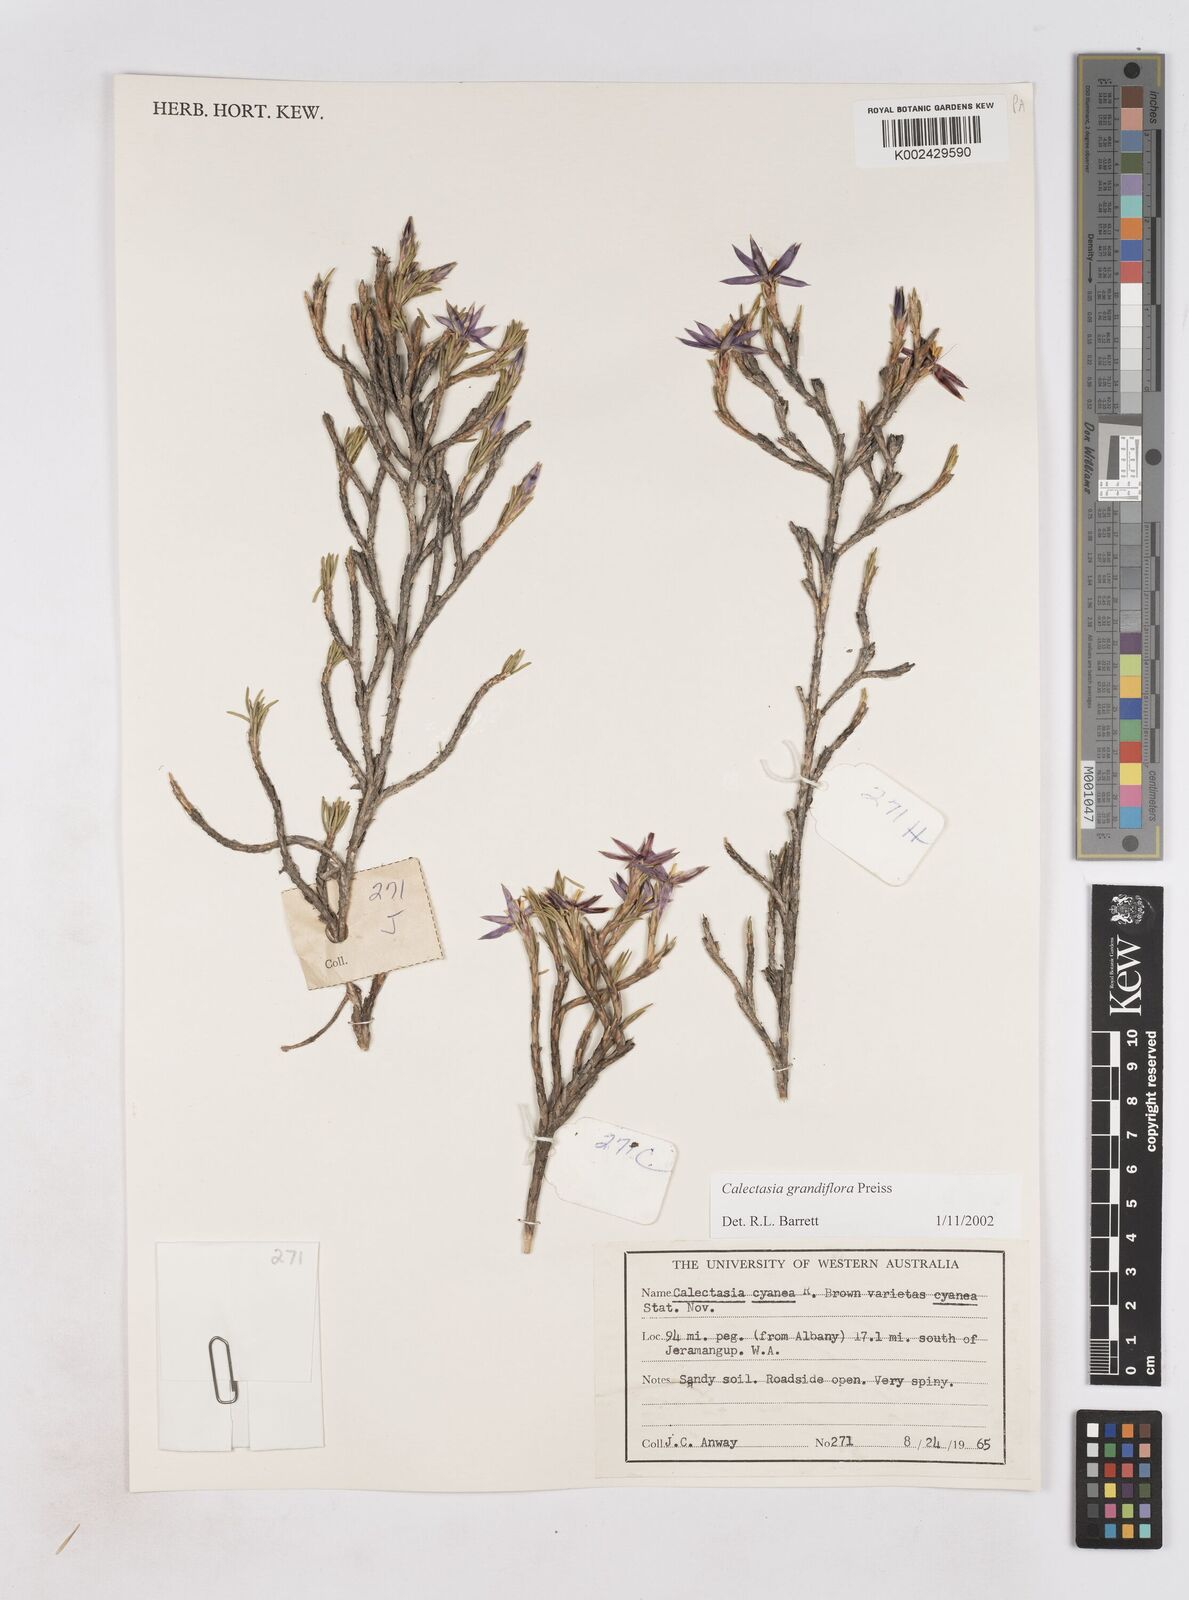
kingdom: Plantae
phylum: Tracheophyta
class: Liliopsida
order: Arecales
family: Dasypogonaceae
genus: Calectasia
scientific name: Calectasia grandiflora
